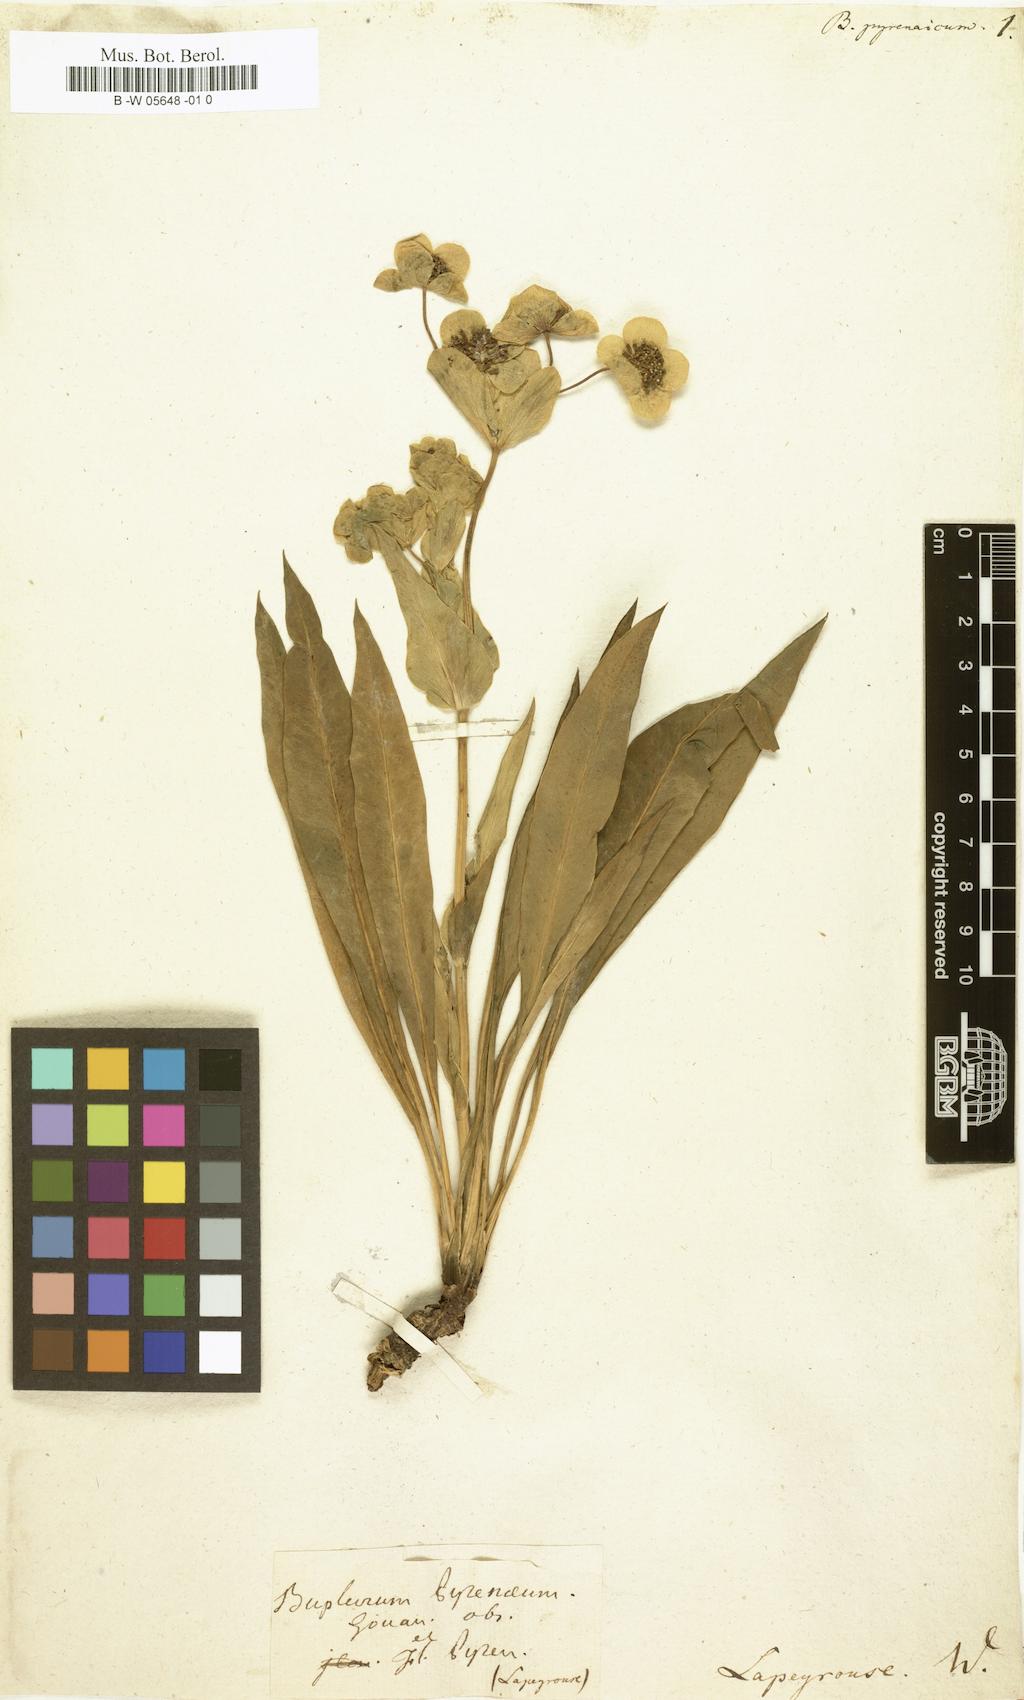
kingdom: Plantae
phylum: Tracheophyta
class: Magnoliopsida
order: Apiales
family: Apiaceae
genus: Bupleurum
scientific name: Bupleurum angulosum
